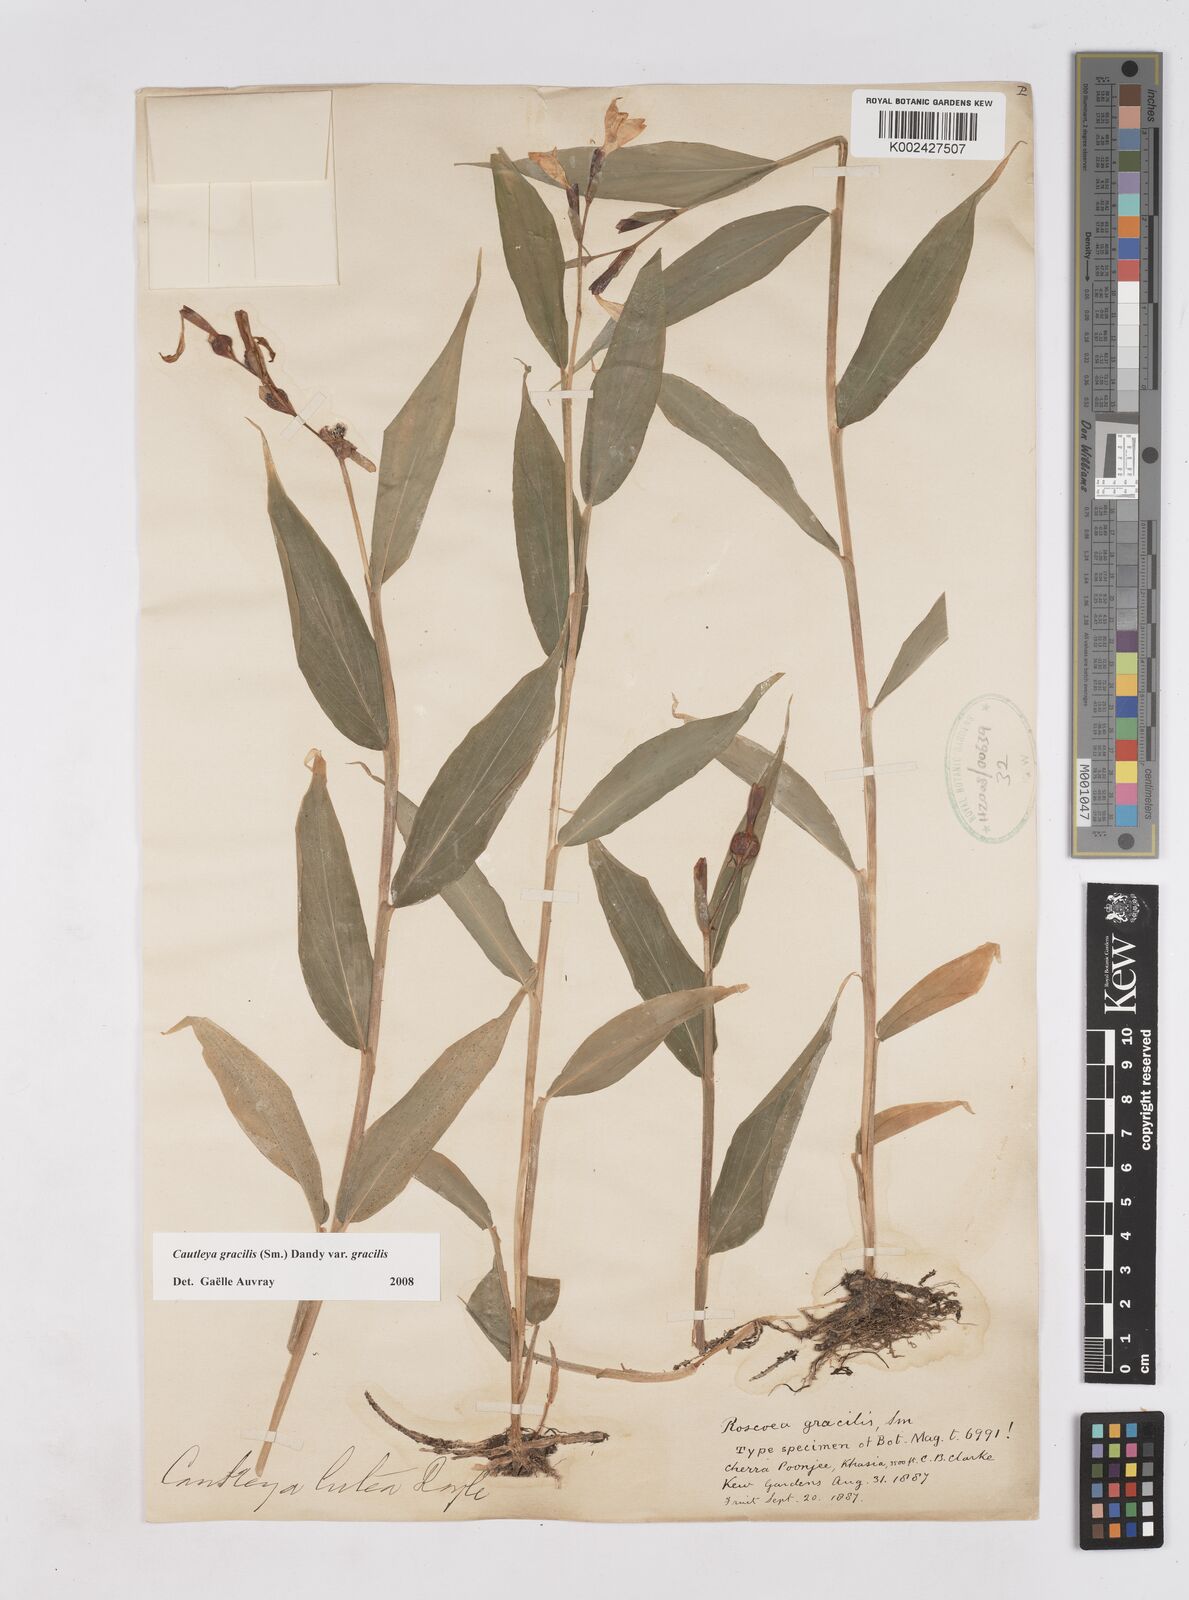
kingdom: Plantae
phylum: Tracheophyta
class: Liliopsida
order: Zingiberales
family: Zingiberaceae
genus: Cautleya
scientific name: Cautleya gracilis
